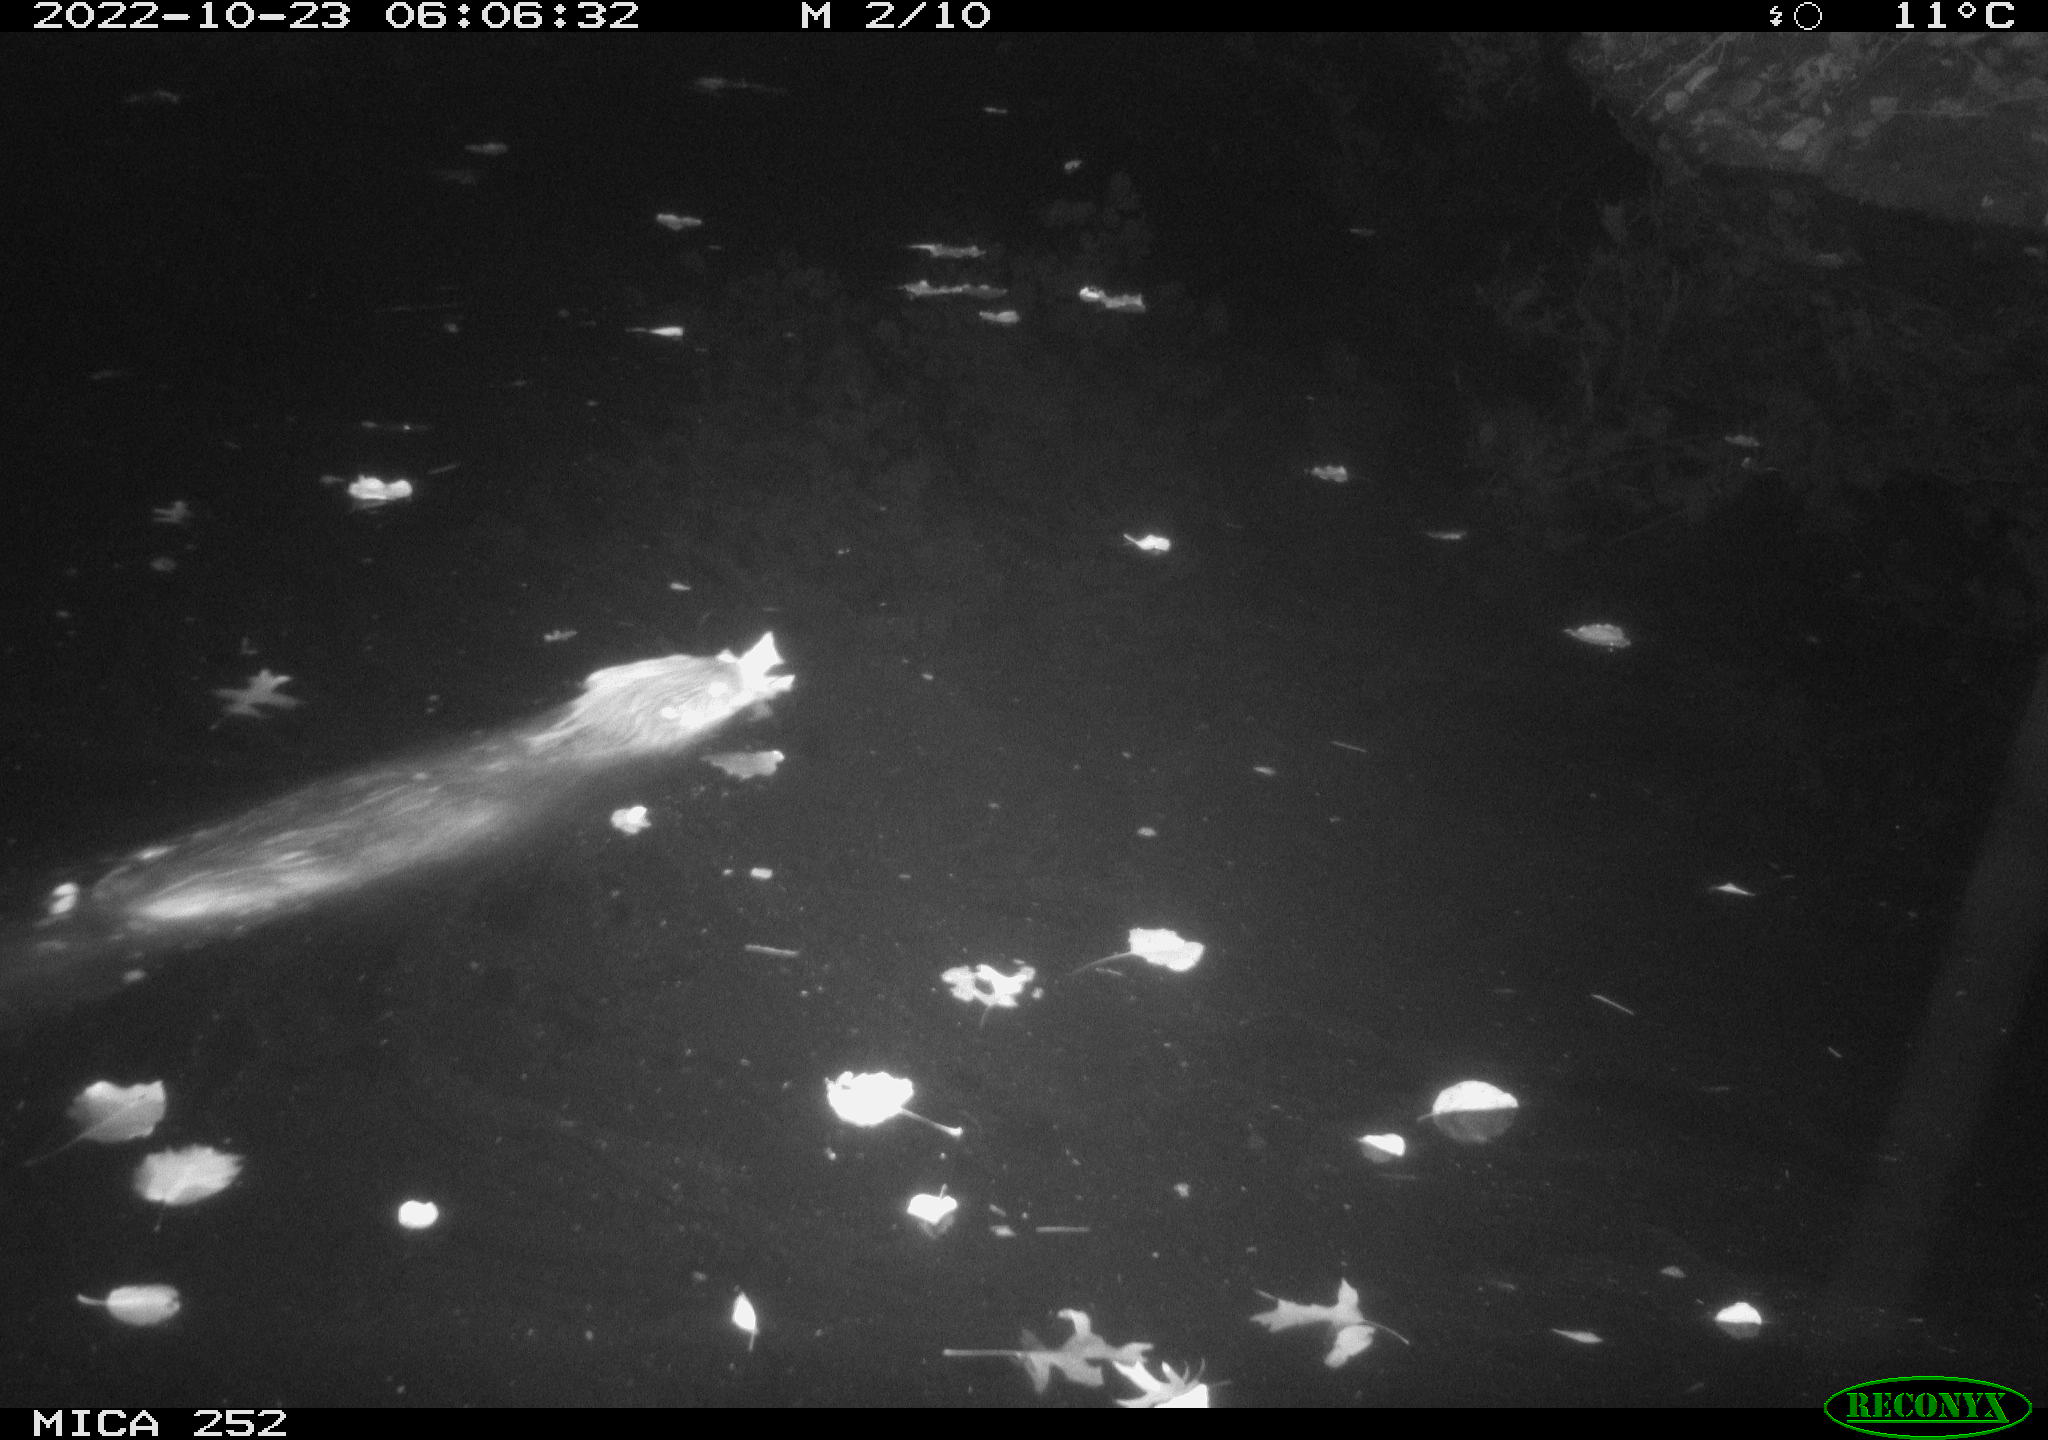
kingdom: Animalia
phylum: Chordata
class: Mammalia
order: Rodentia
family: Castoridae
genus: Castor
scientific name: Castor fiber
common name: Eurasian beaver
